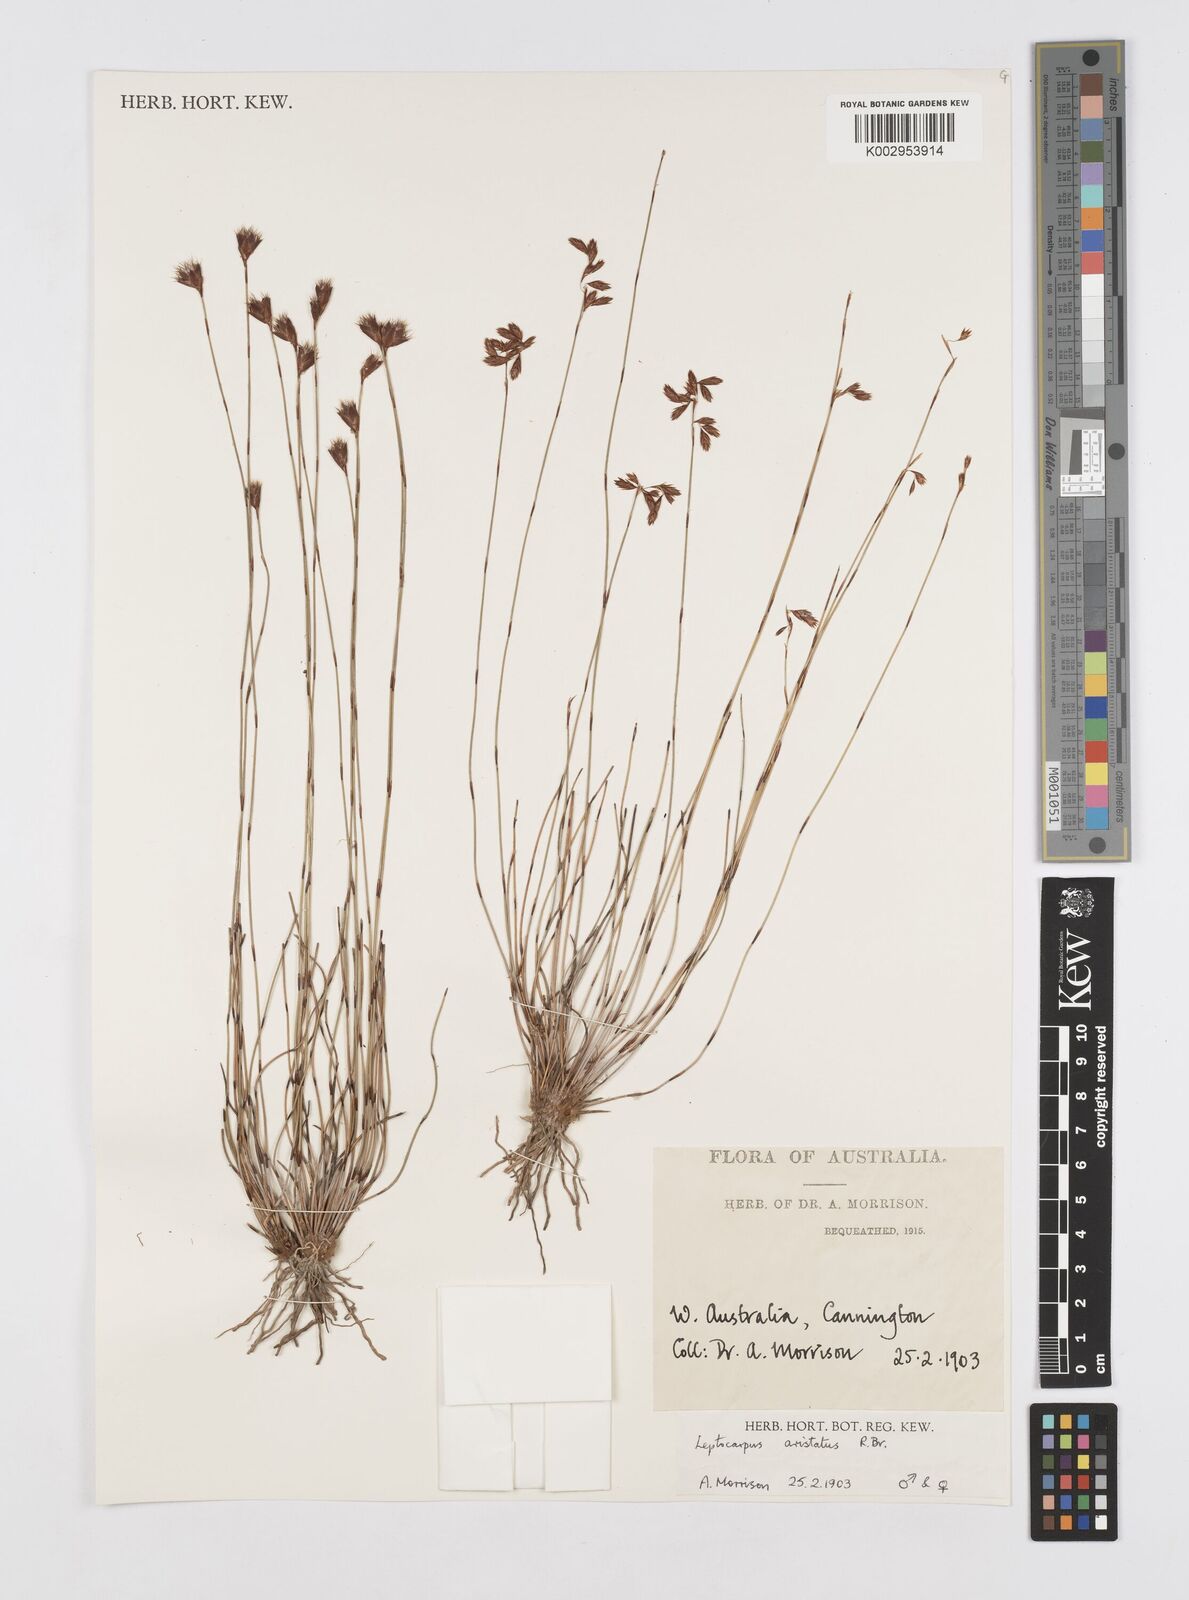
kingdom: Plantae
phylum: Tracheophyta
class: Liliopsida
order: Poales
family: Restionaceae
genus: Chaetanthus
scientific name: Chaetanthus aristatus
